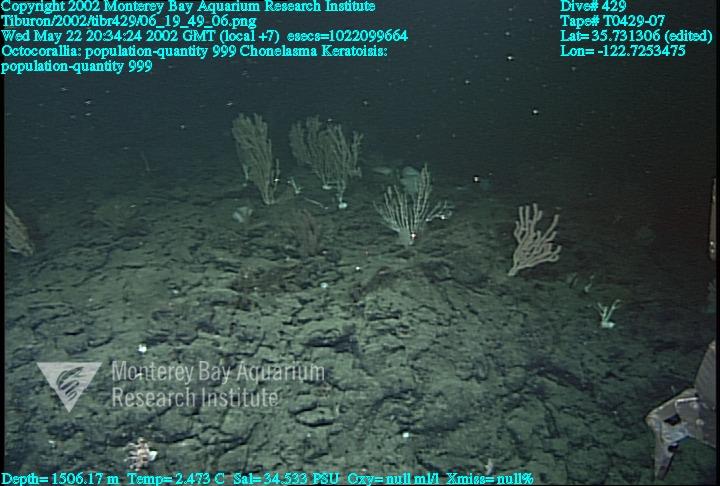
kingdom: Animalia
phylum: Porifera
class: Hexactinellida
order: Sceptrulophora
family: Euretidae
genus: Chonelasma
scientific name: Chonelasma
